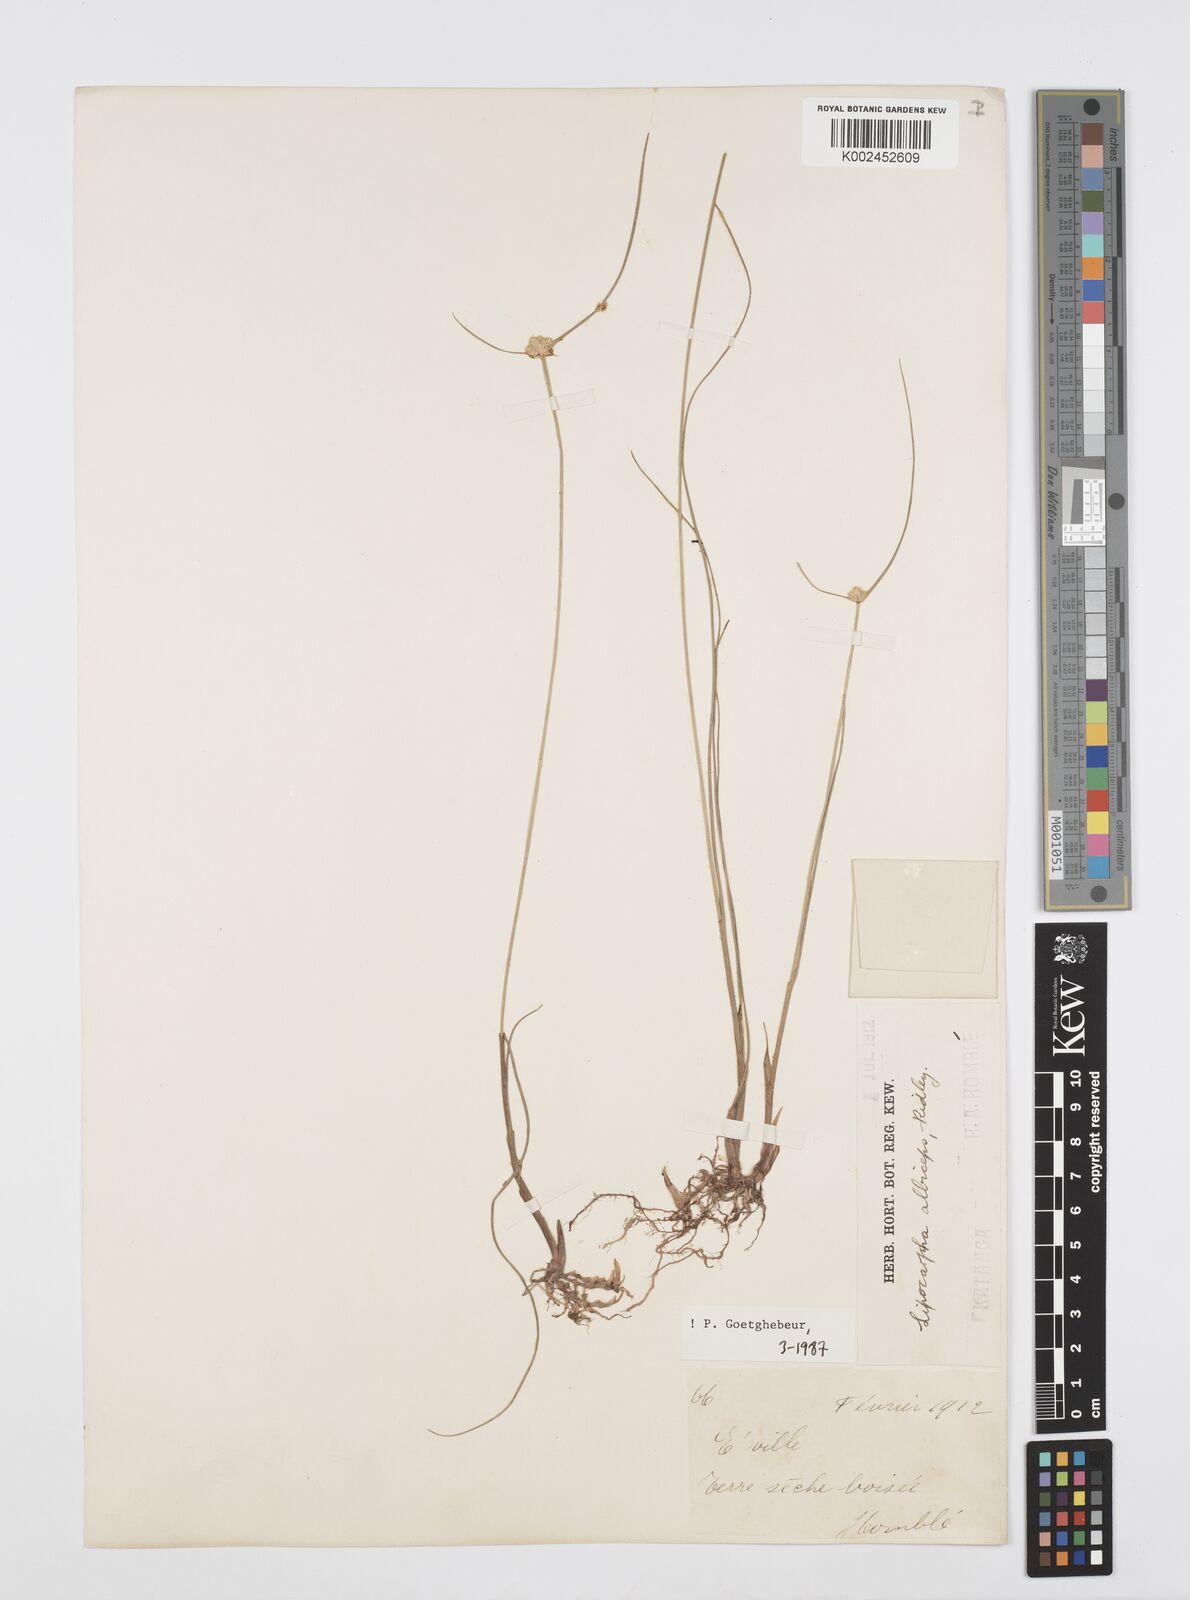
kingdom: Plantae
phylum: Tracheophyta
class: Liliopsida
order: Poales
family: Cyperaceae
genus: Cyperus
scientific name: Cyperus albiceps
